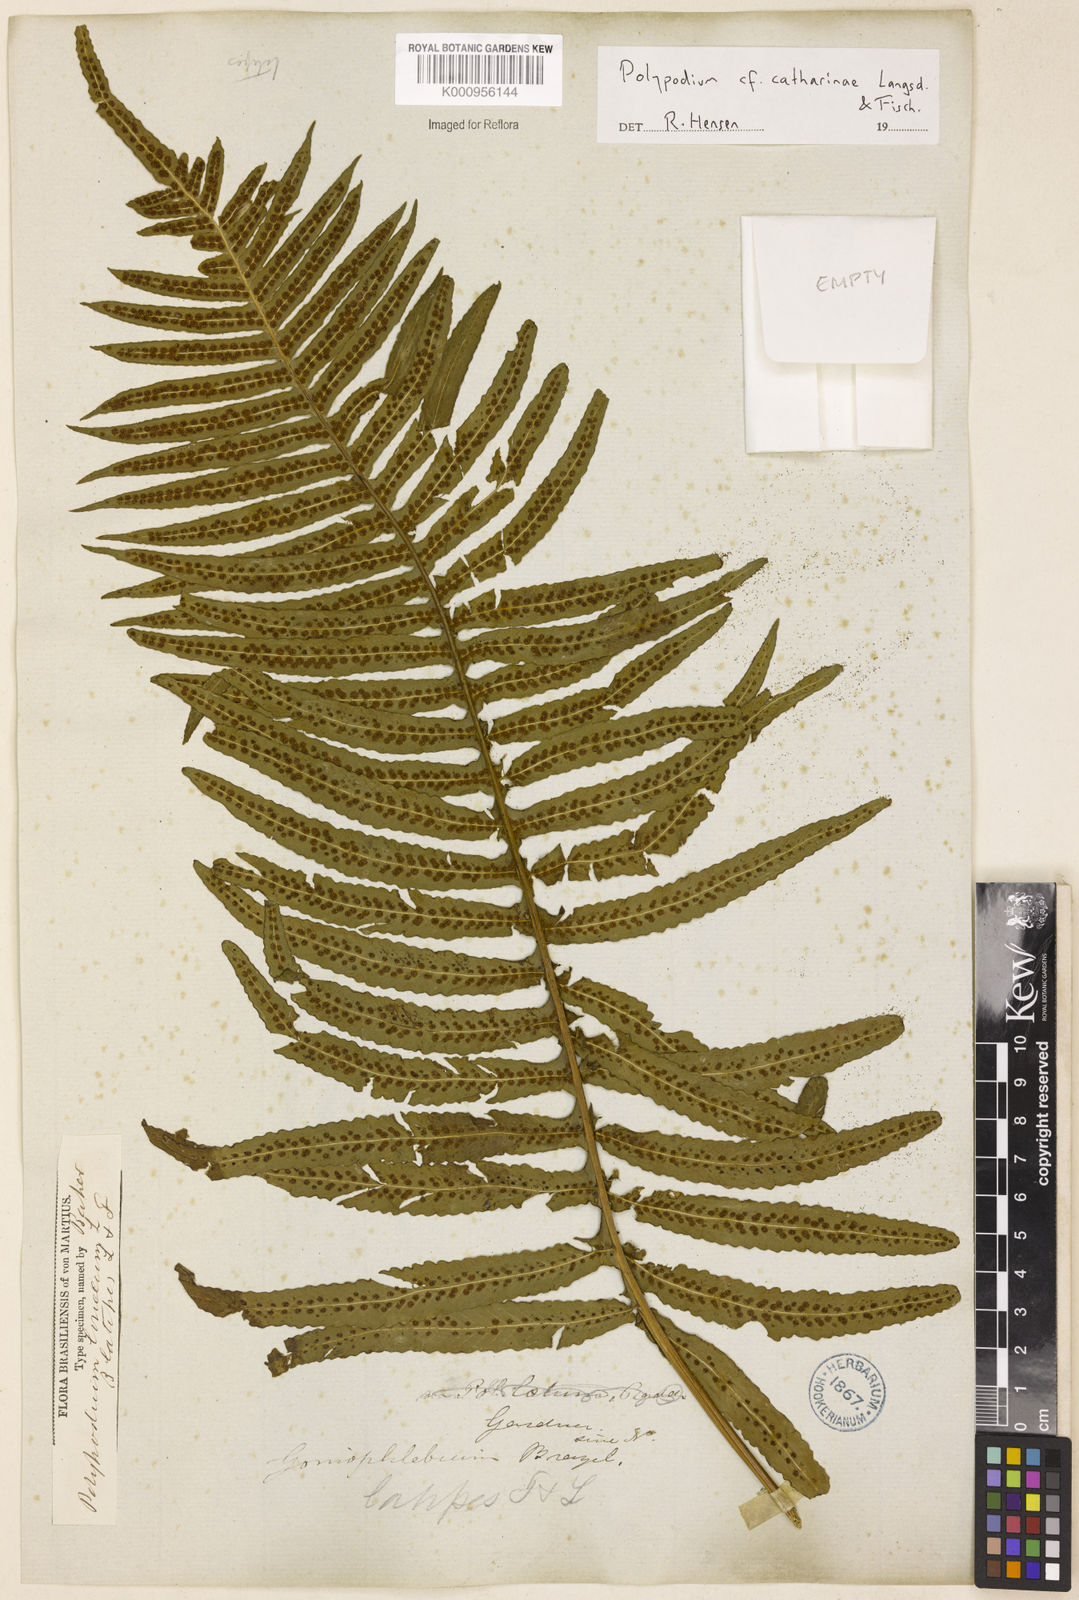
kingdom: Plantae
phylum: Tracheophyta
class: Polypodiopsida
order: Polypodiales
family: Polypodiaceae
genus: Serpocaulon
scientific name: Serpocaulon catharinae
